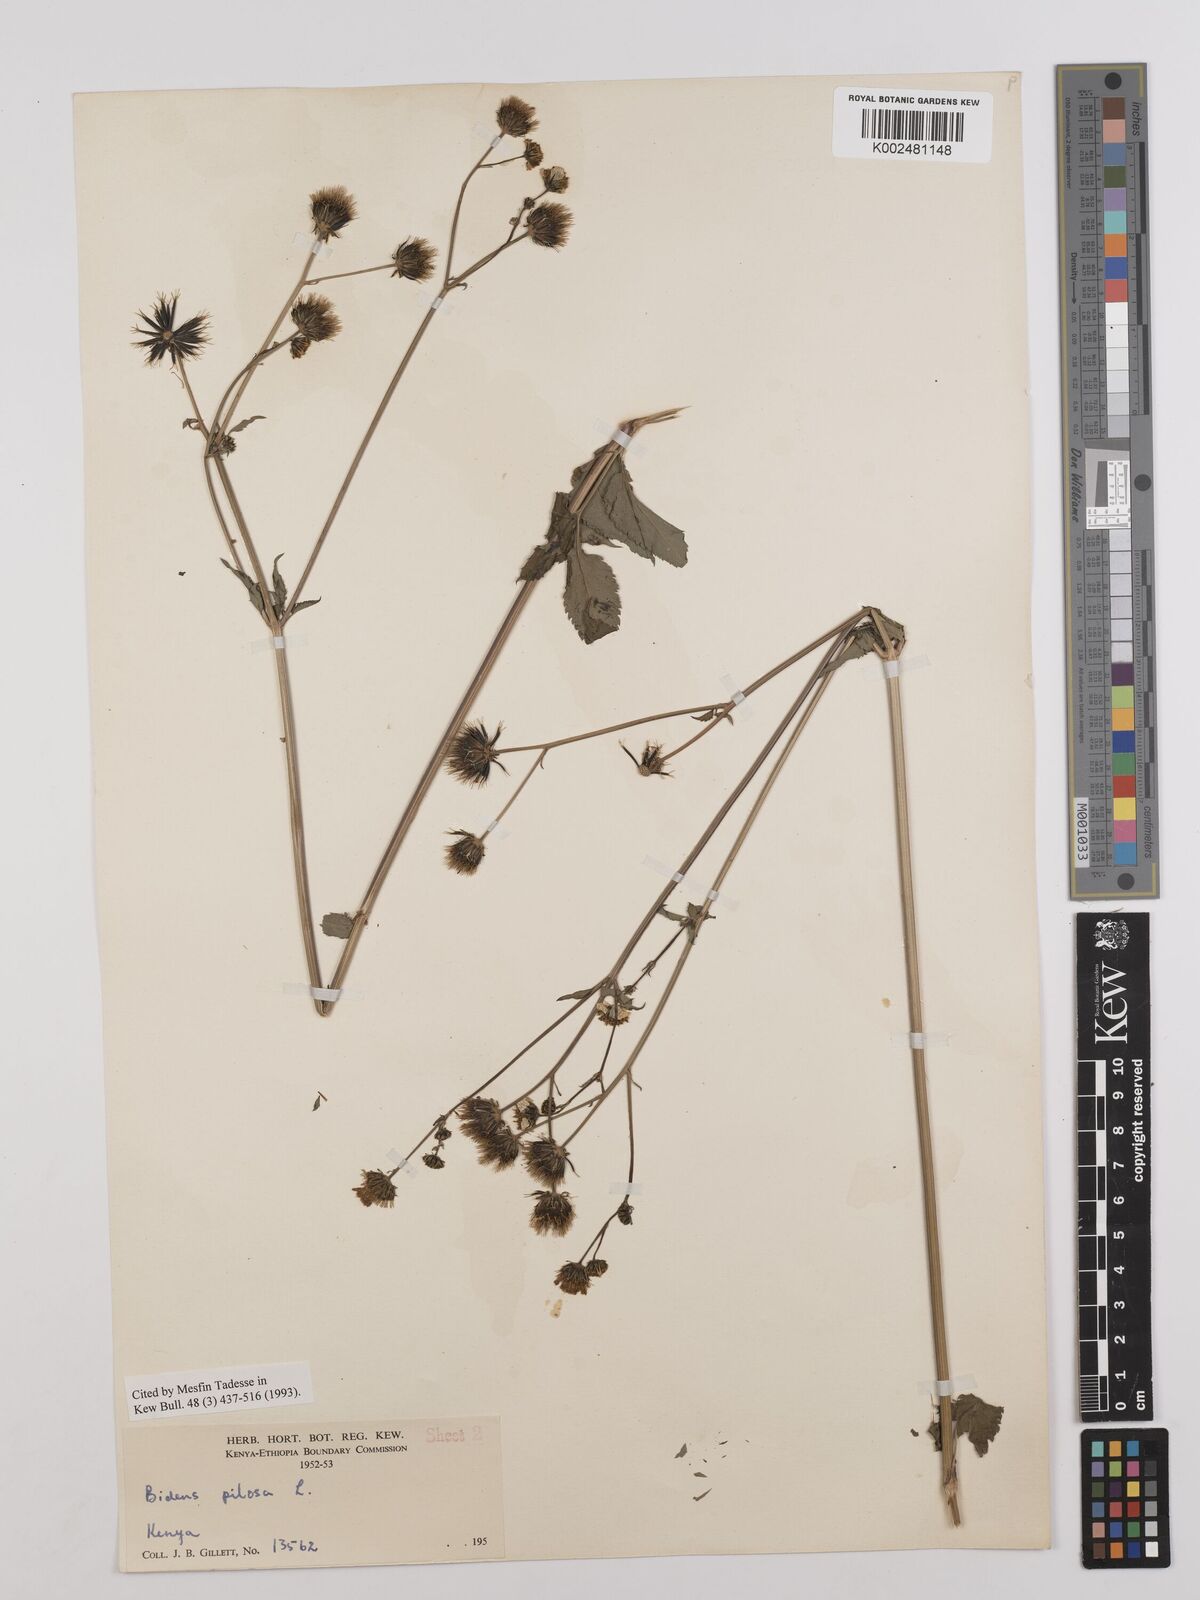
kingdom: Plantae
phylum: Tracheophyta
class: Magnoliopsida
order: Asterales
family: Asteraceae
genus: Bidens
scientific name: Bidens pilosa
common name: Black-jack
